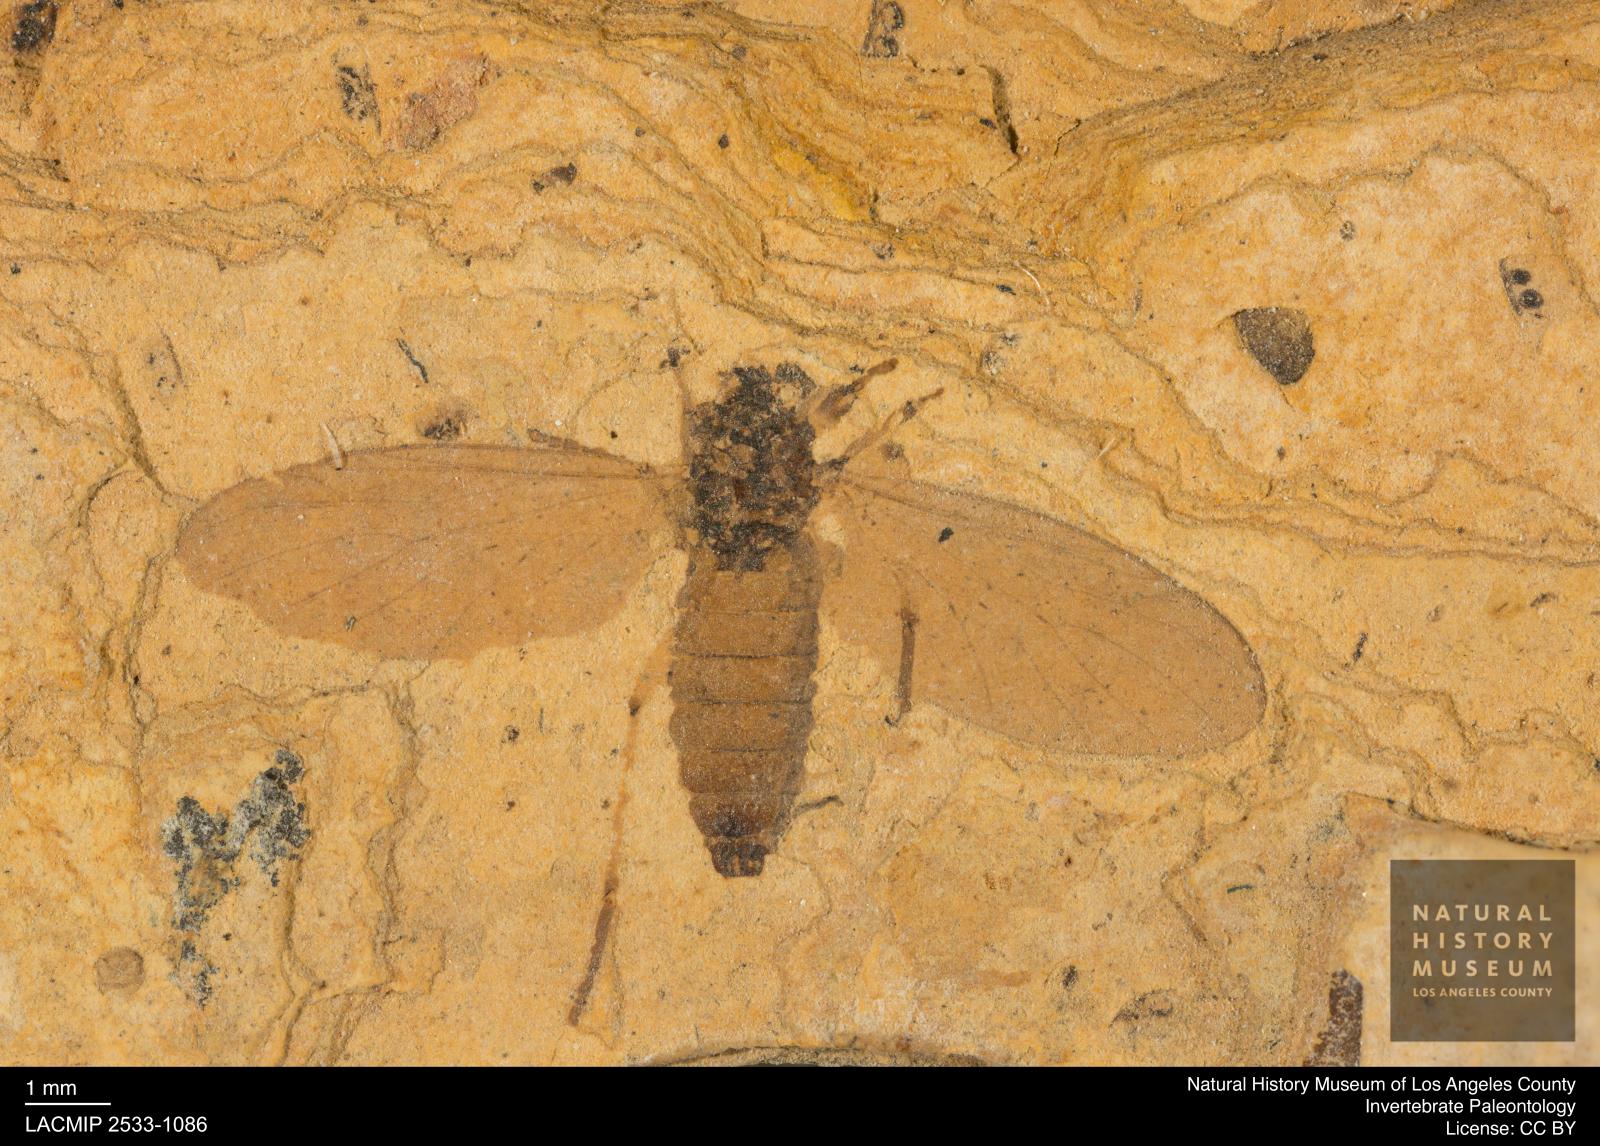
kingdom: Animalia
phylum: Arthropoda
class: Insecta
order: Diptera
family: Bibionidae
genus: Plecia
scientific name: Plecia hypogaea
